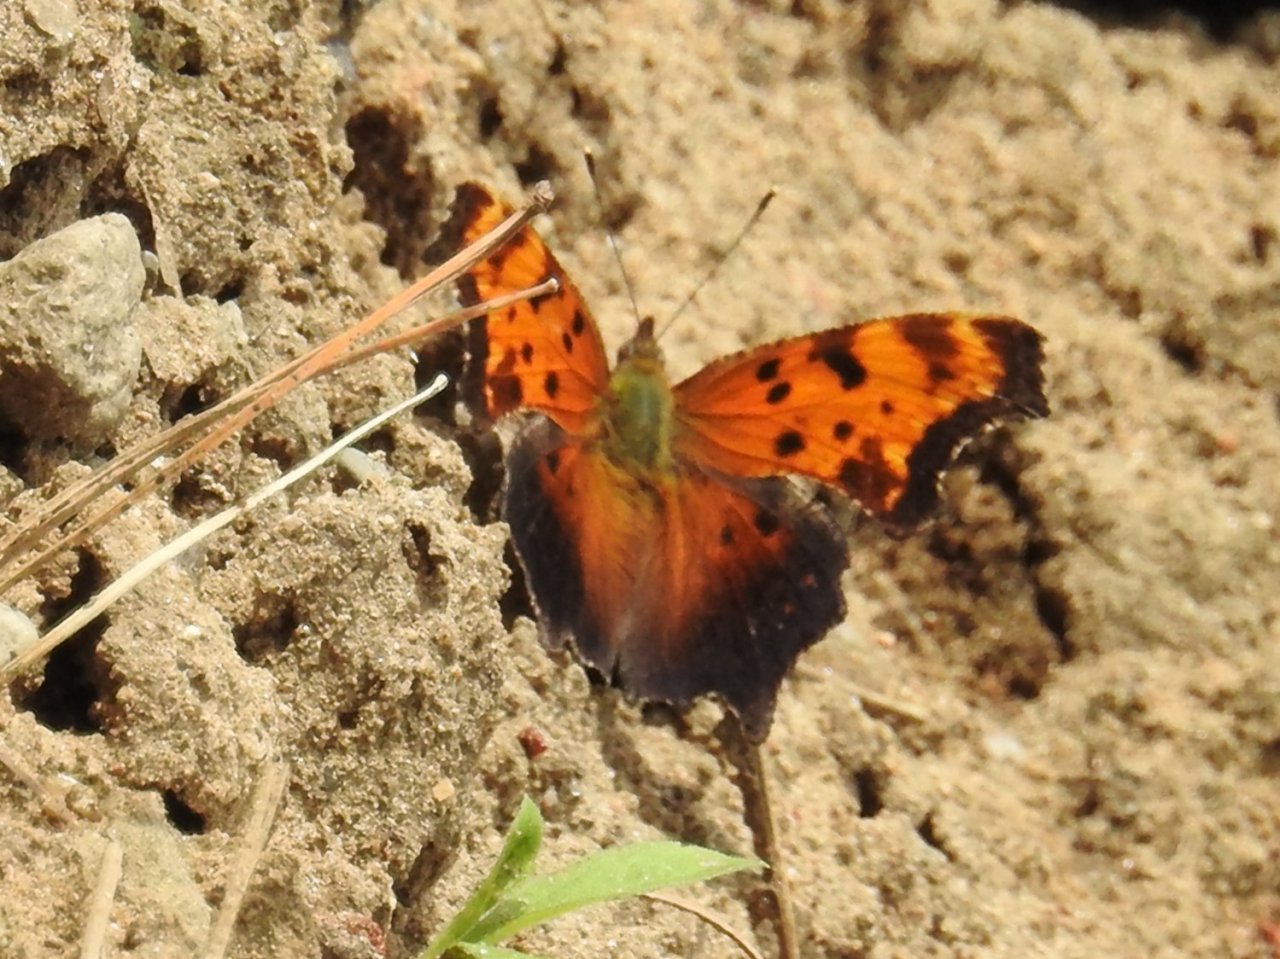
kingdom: Animalia
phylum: Arthropoda
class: Insecta
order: Lepidoptera
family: Nymphalidae
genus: Polygonia
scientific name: Polygonia progne
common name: Gray Comma
